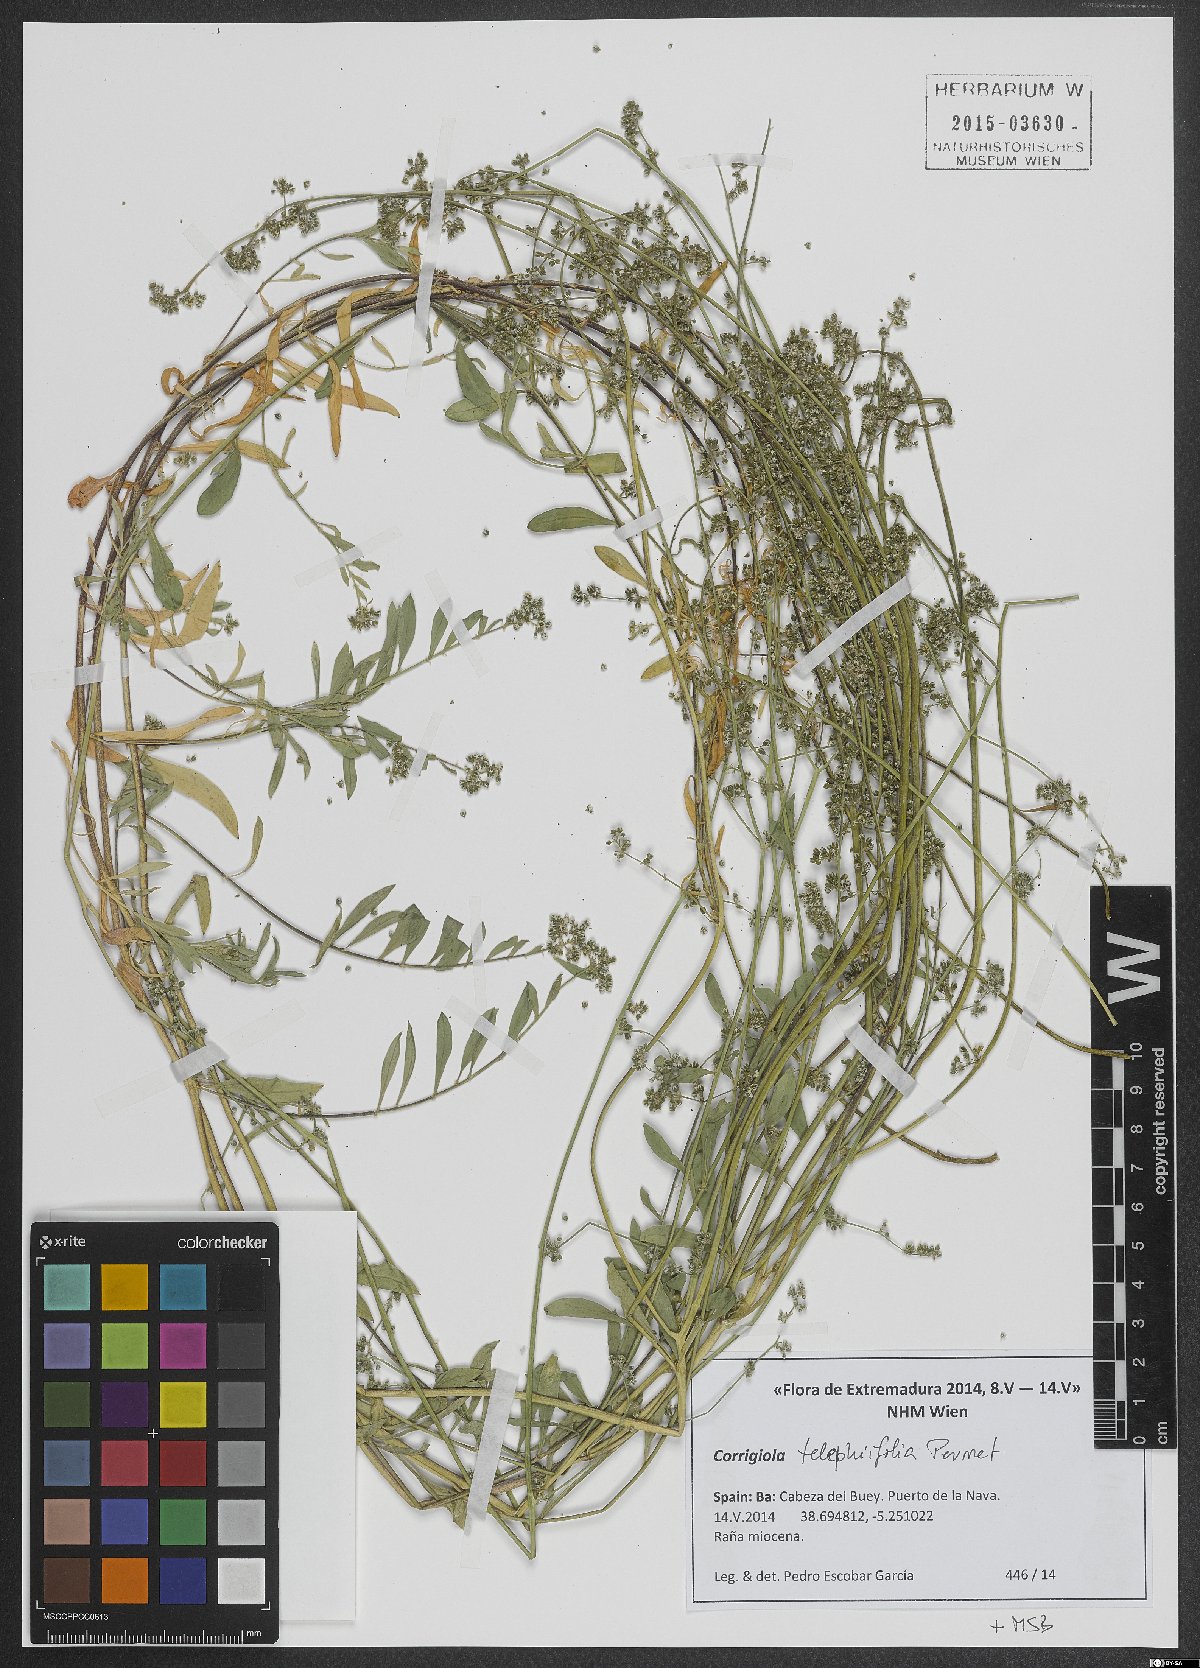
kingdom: Plantae
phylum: Tracheophyta
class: Magnoliopsida
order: Caryophyllales
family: Caryophyllaceae
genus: Corrigiola
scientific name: Corrigiola telephiifolia
